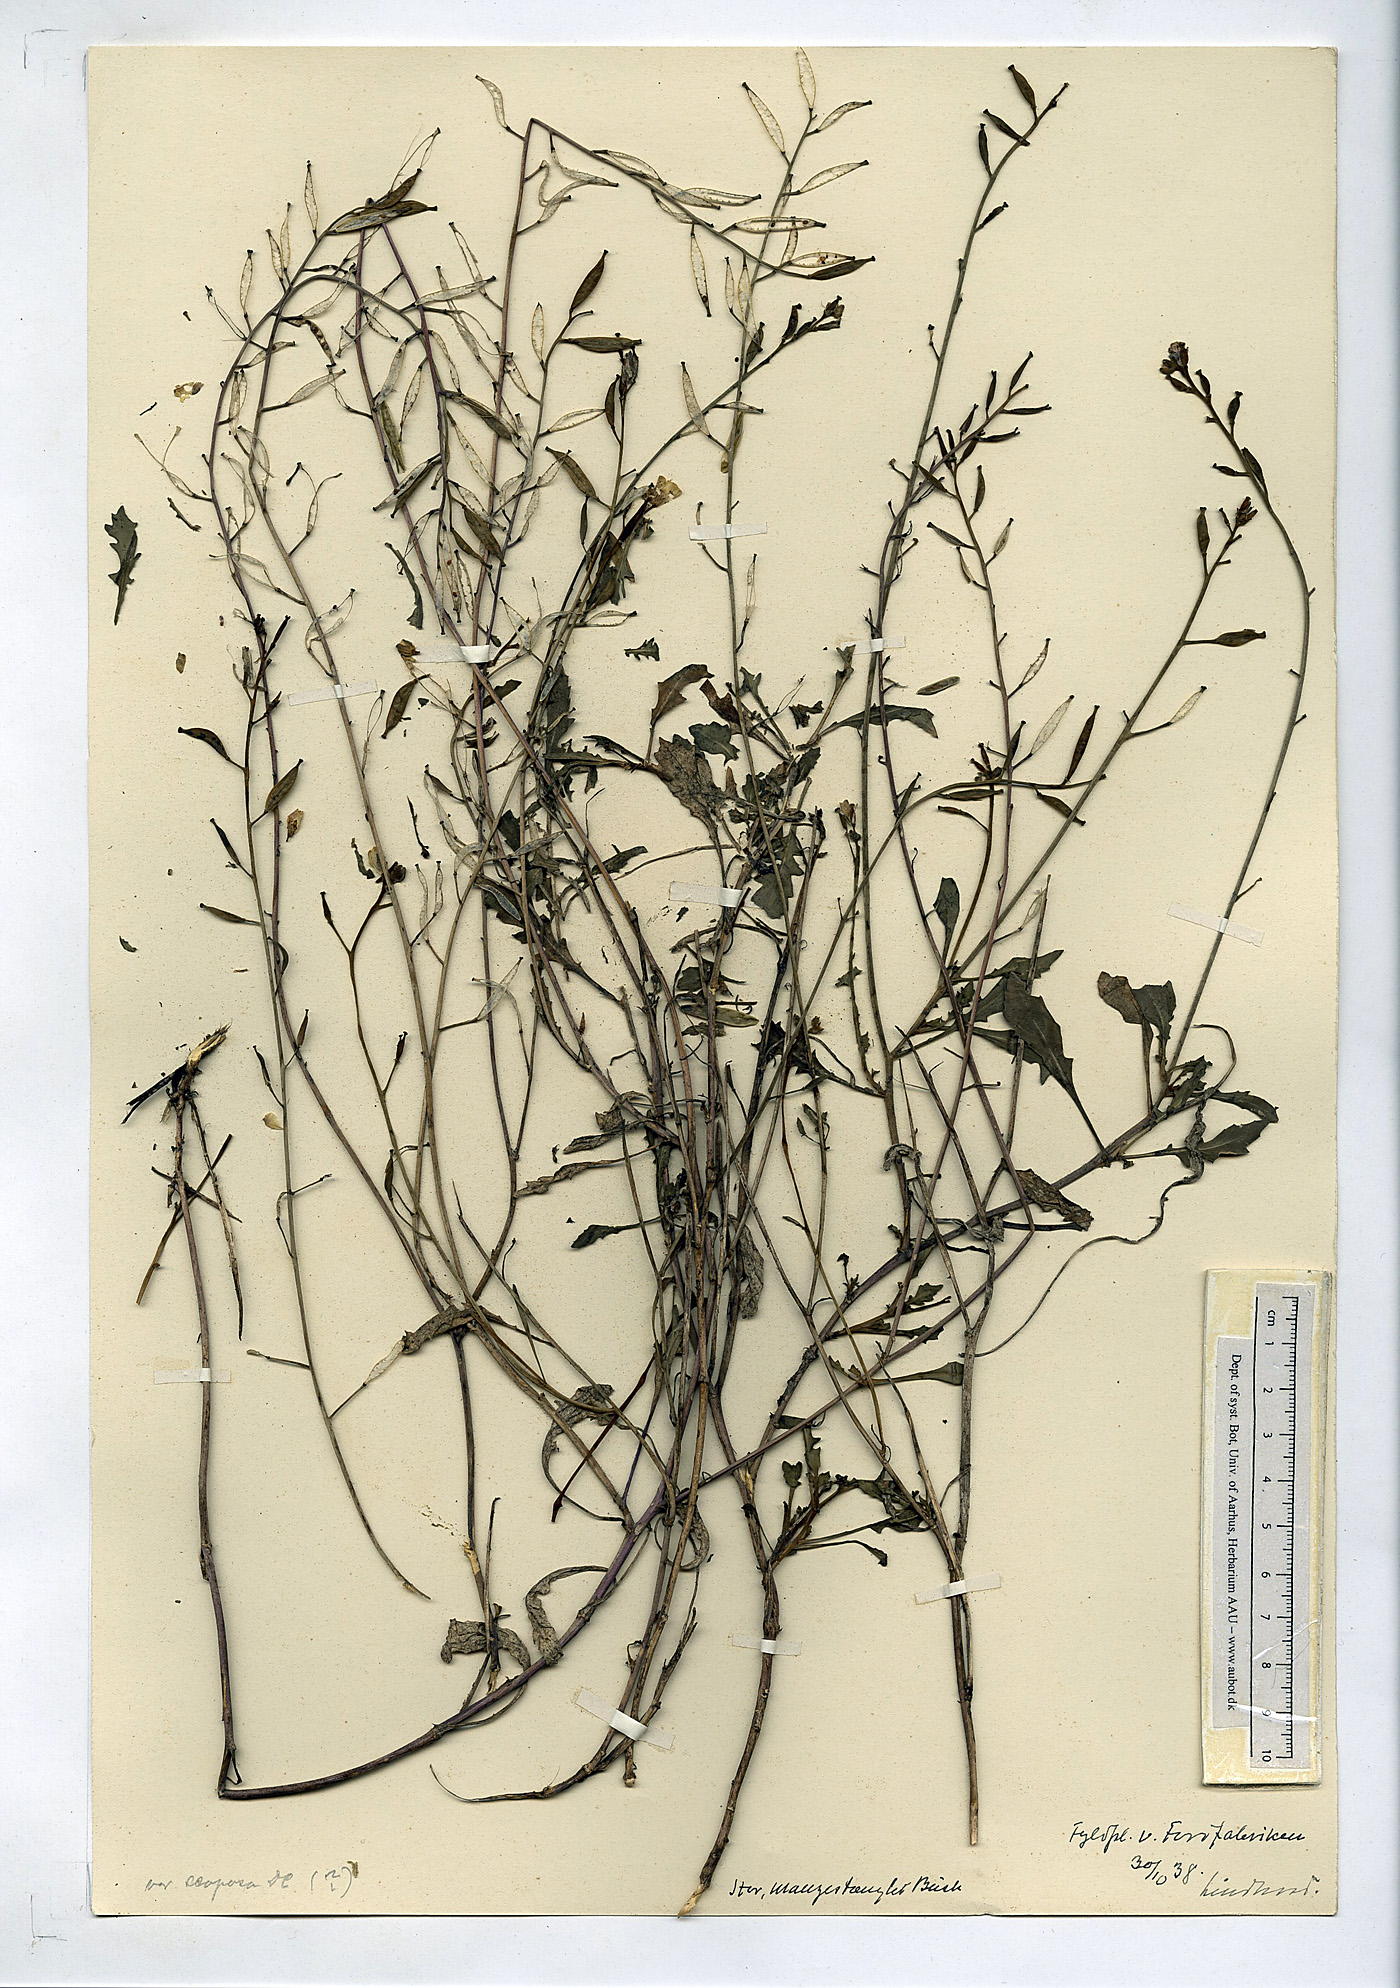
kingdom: Plantae
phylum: Tracheophyta
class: Magnoliopsida
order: Brassicales
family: Brassicaceae
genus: Diplotaxis
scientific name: Diplotaxis muralis
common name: Annual wall-rocket
